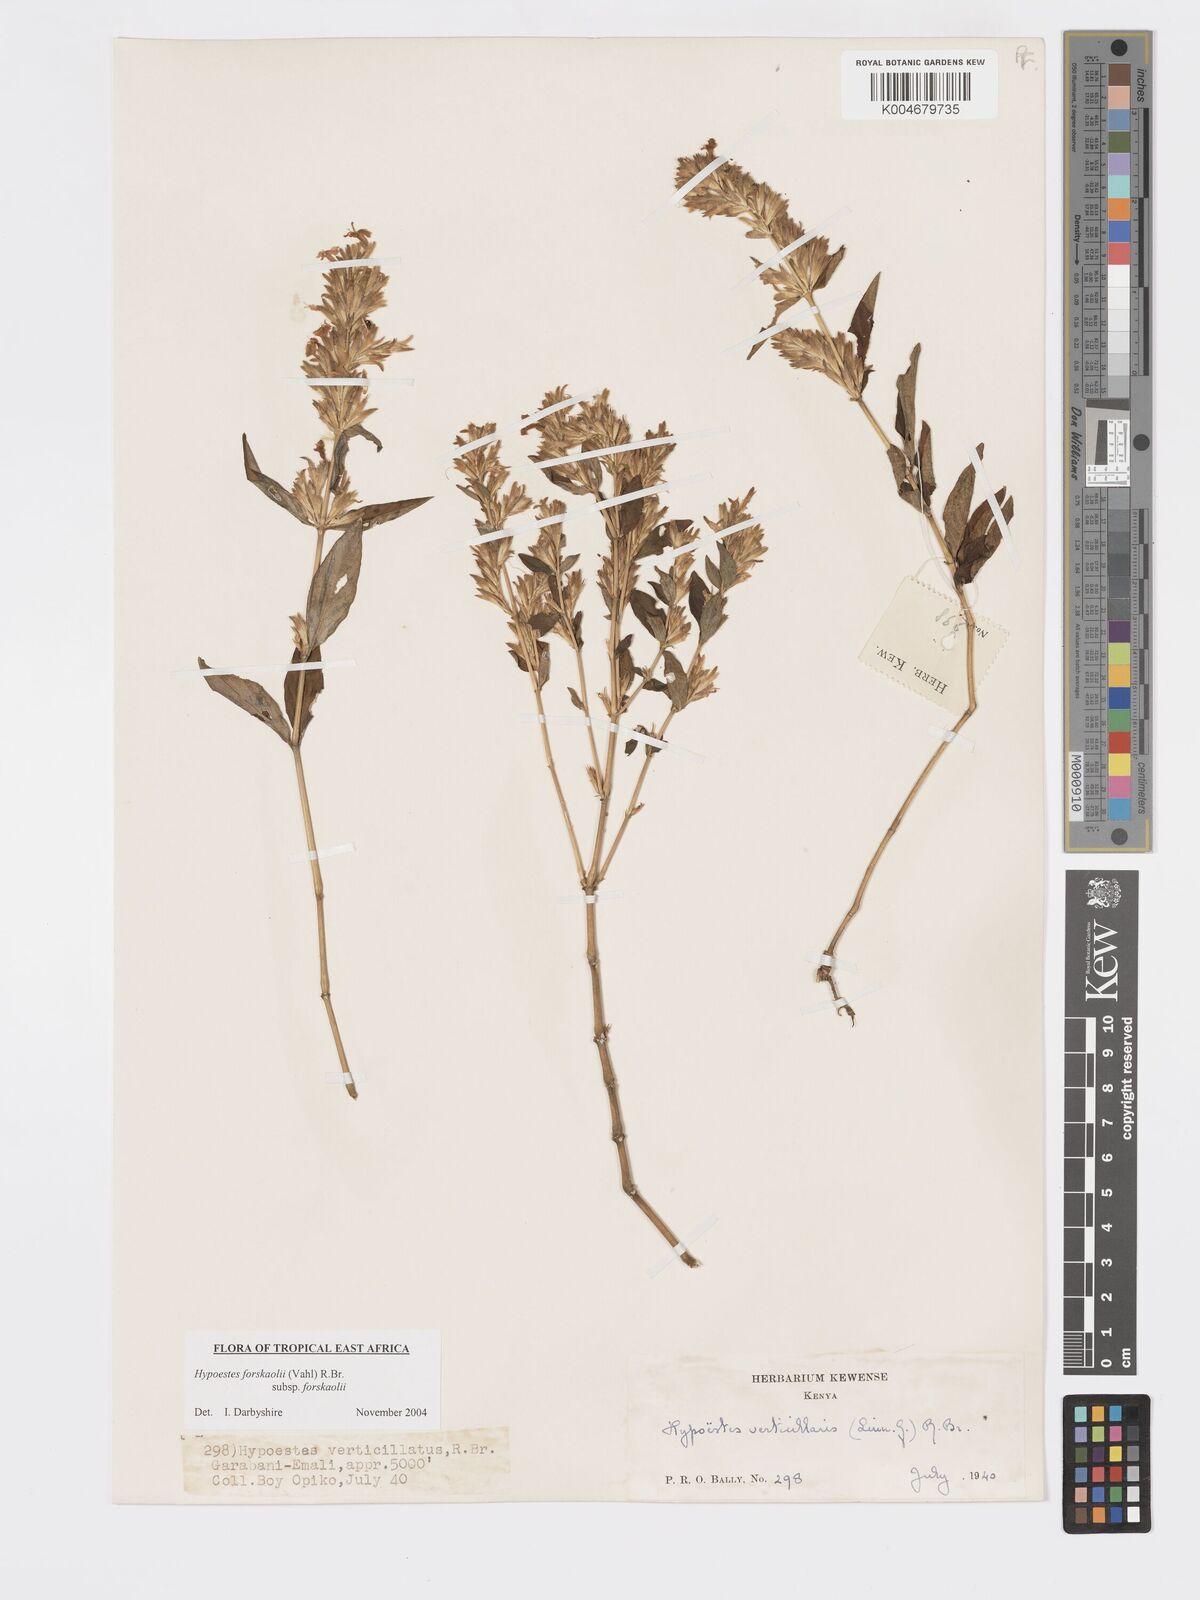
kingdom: Plantae
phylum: Tracheophyta
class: Magnoliopsida
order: Lamiales
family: Acanthaceae
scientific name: Acanthaceae
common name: Acanthaceae
